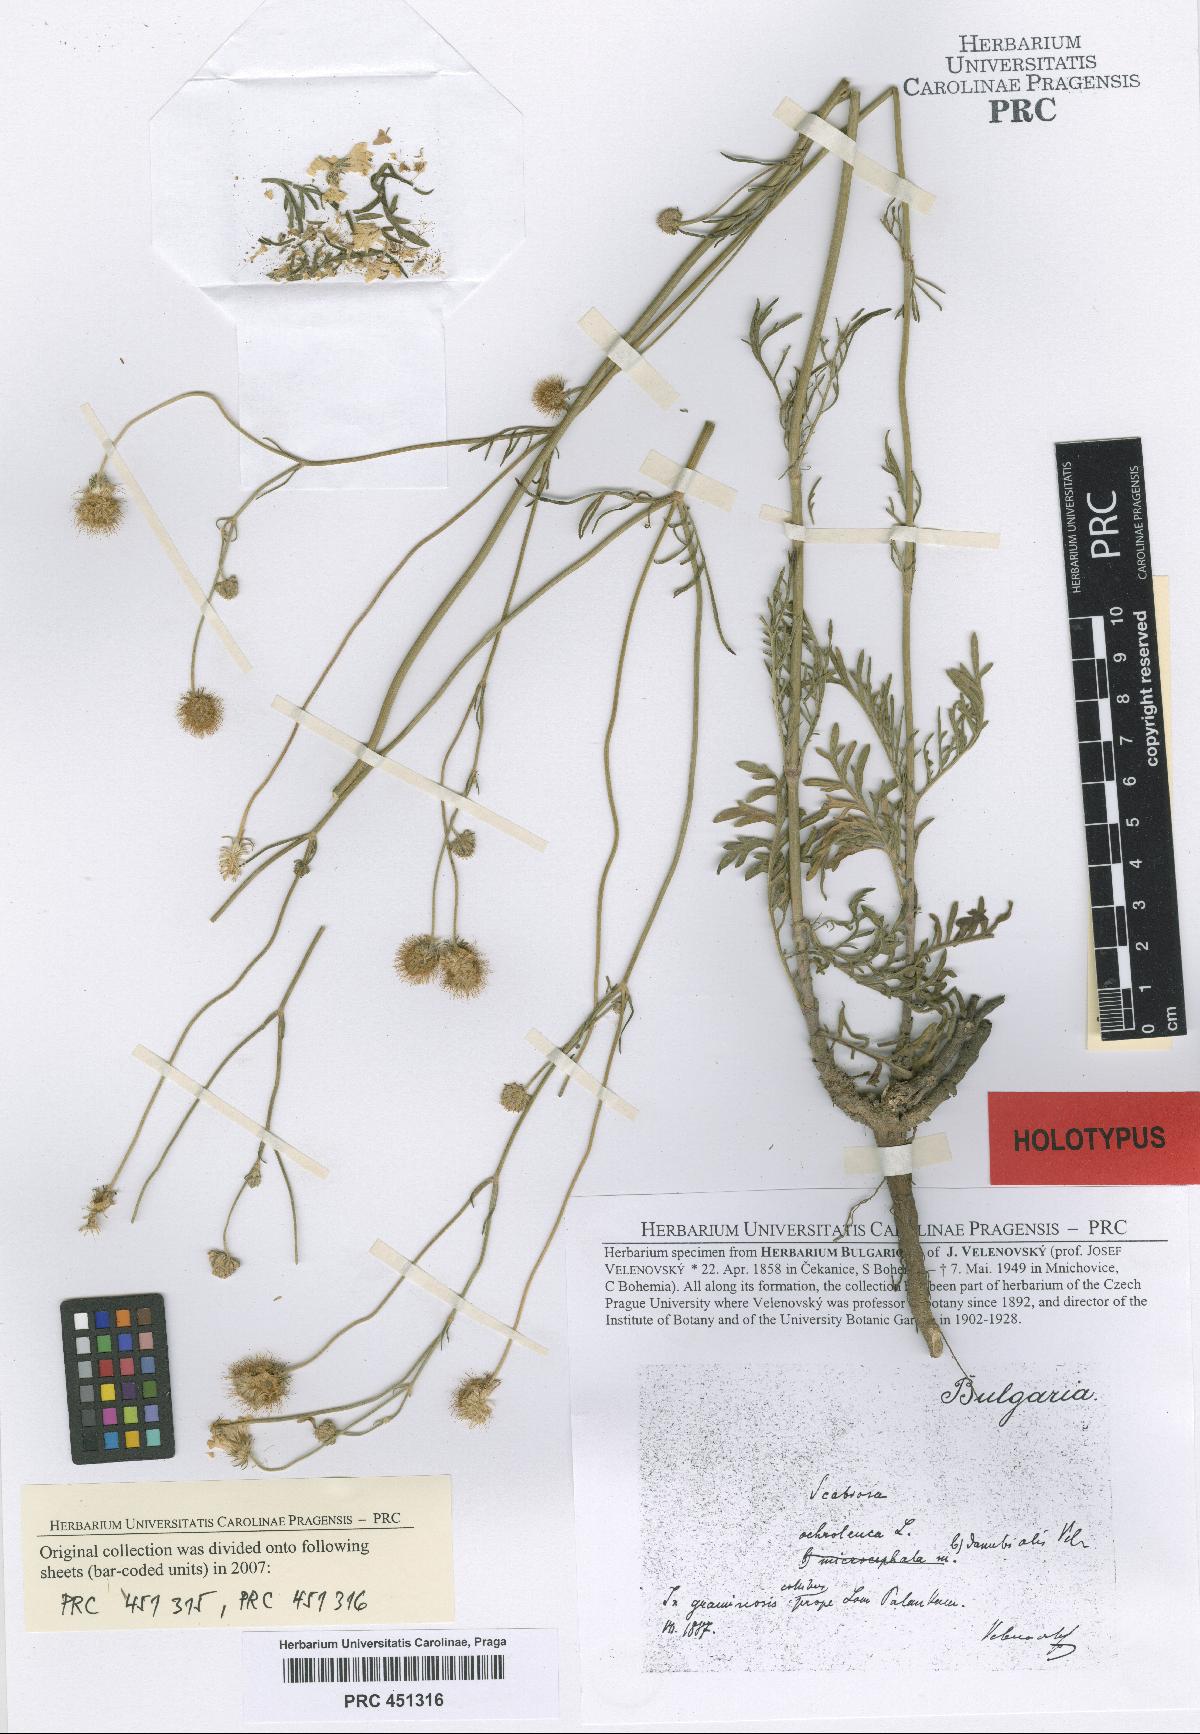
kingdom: Plantae
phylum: Tracheophyta
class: Magnoliopsida
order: Dipsacales
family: Caprifoliaceae
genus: Scabiosa
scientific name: Scabiosa ochroleuca
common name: Cream pincushions
